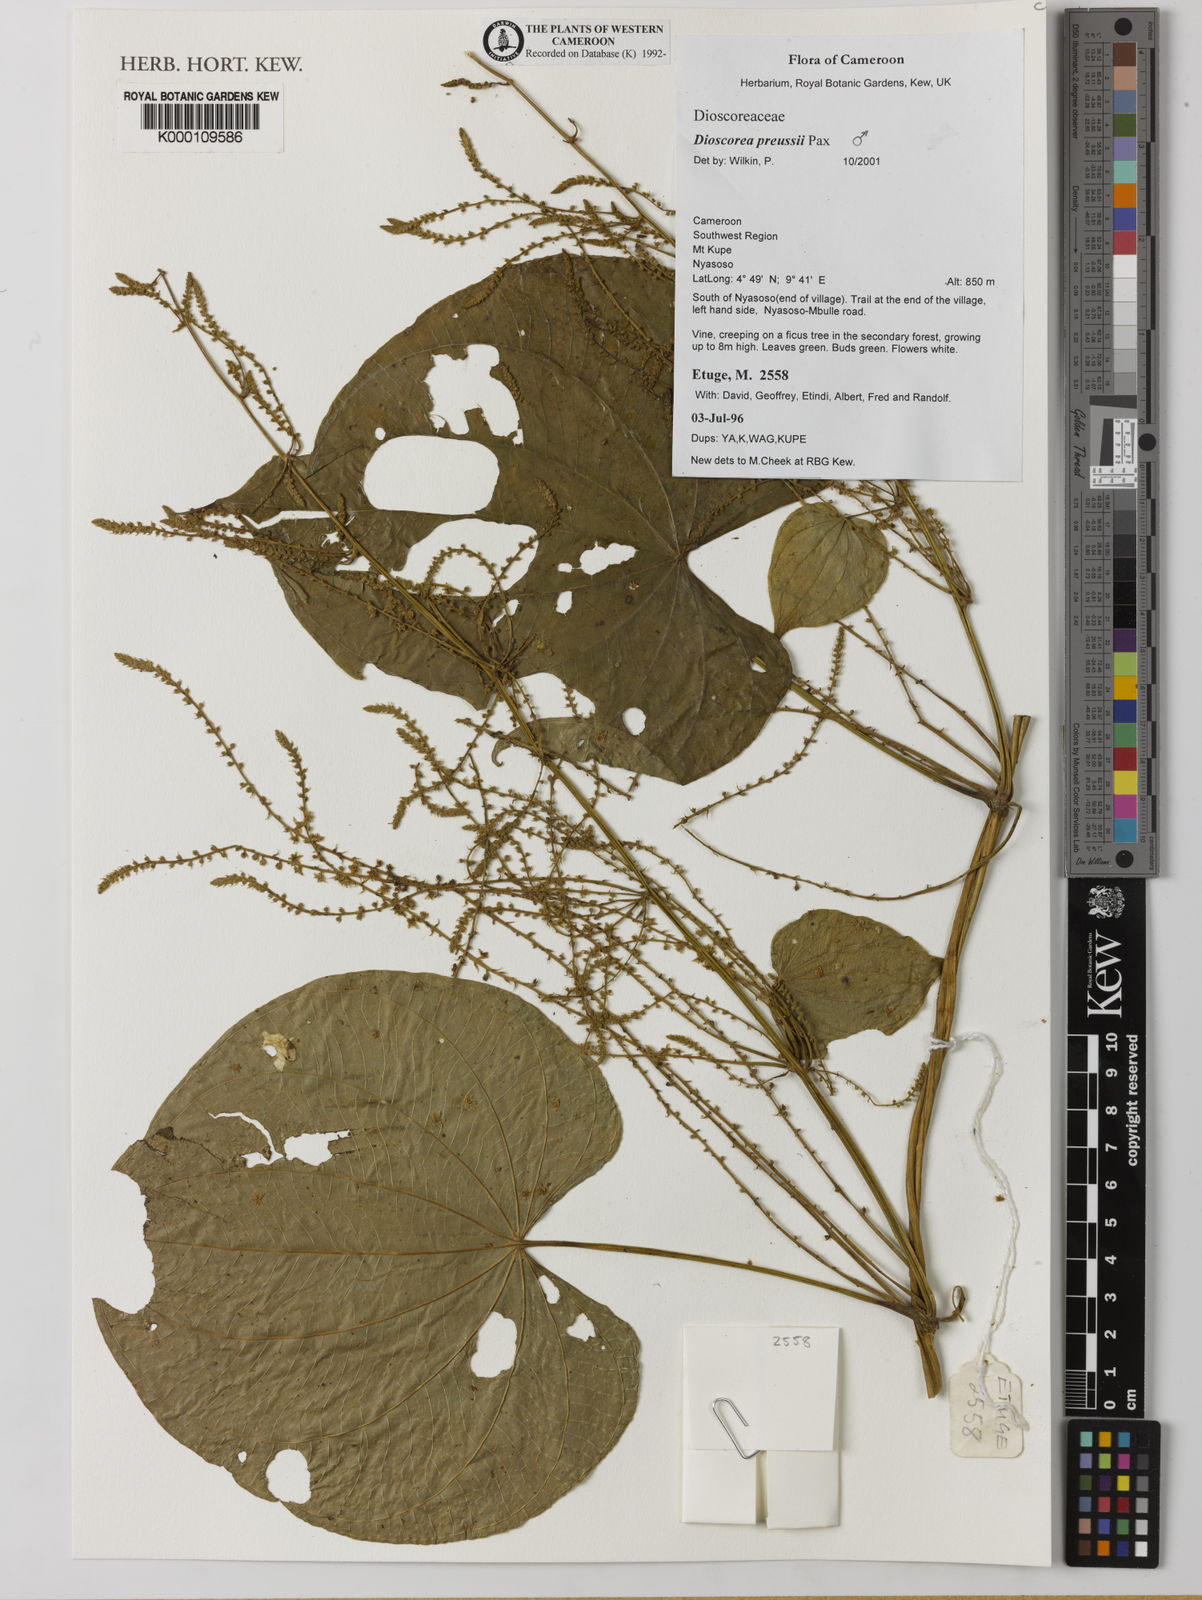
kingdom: Plantae
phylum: Tracheophyta
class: Liliopsida
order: Dioscoreales
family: Dioscoreaceae
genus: Dioscorea
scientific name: Dioscorea preussii
